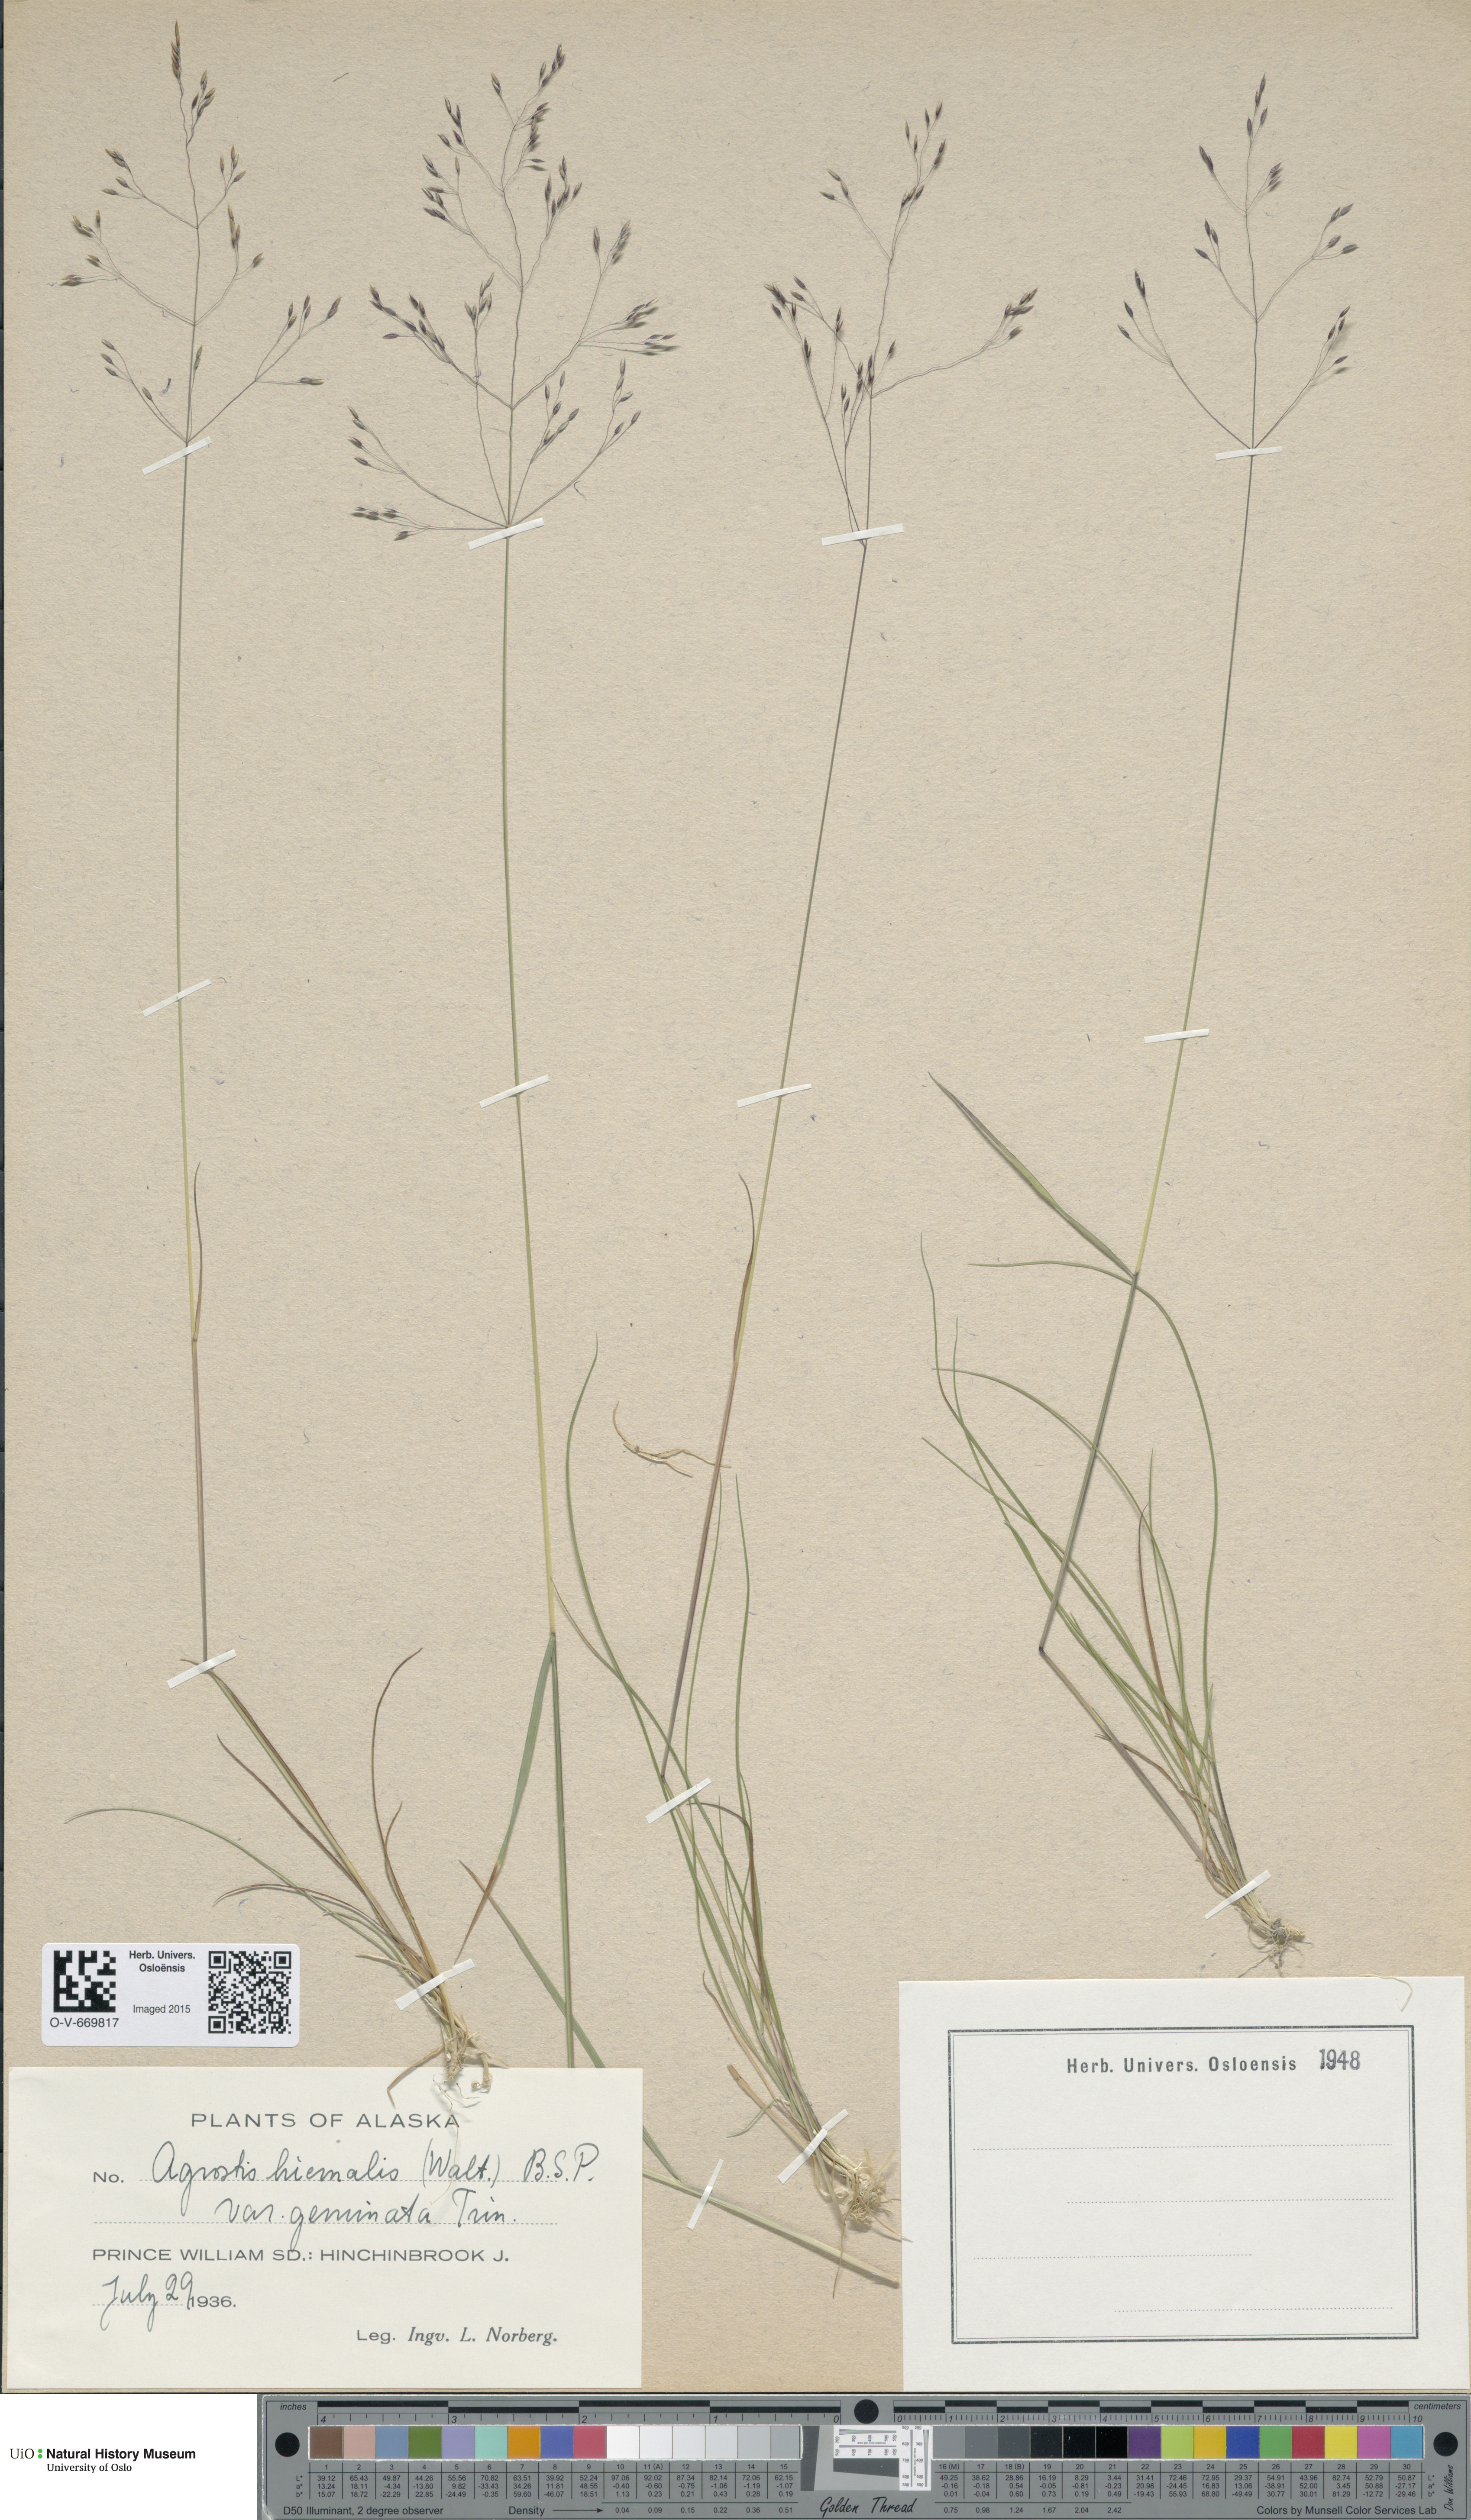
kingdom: Plantae
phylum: Tracheophyta
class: Liliopsida
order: Poales
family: Poaceae
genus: Agrostis
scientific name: Agrostis scabra
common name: Rough bent
